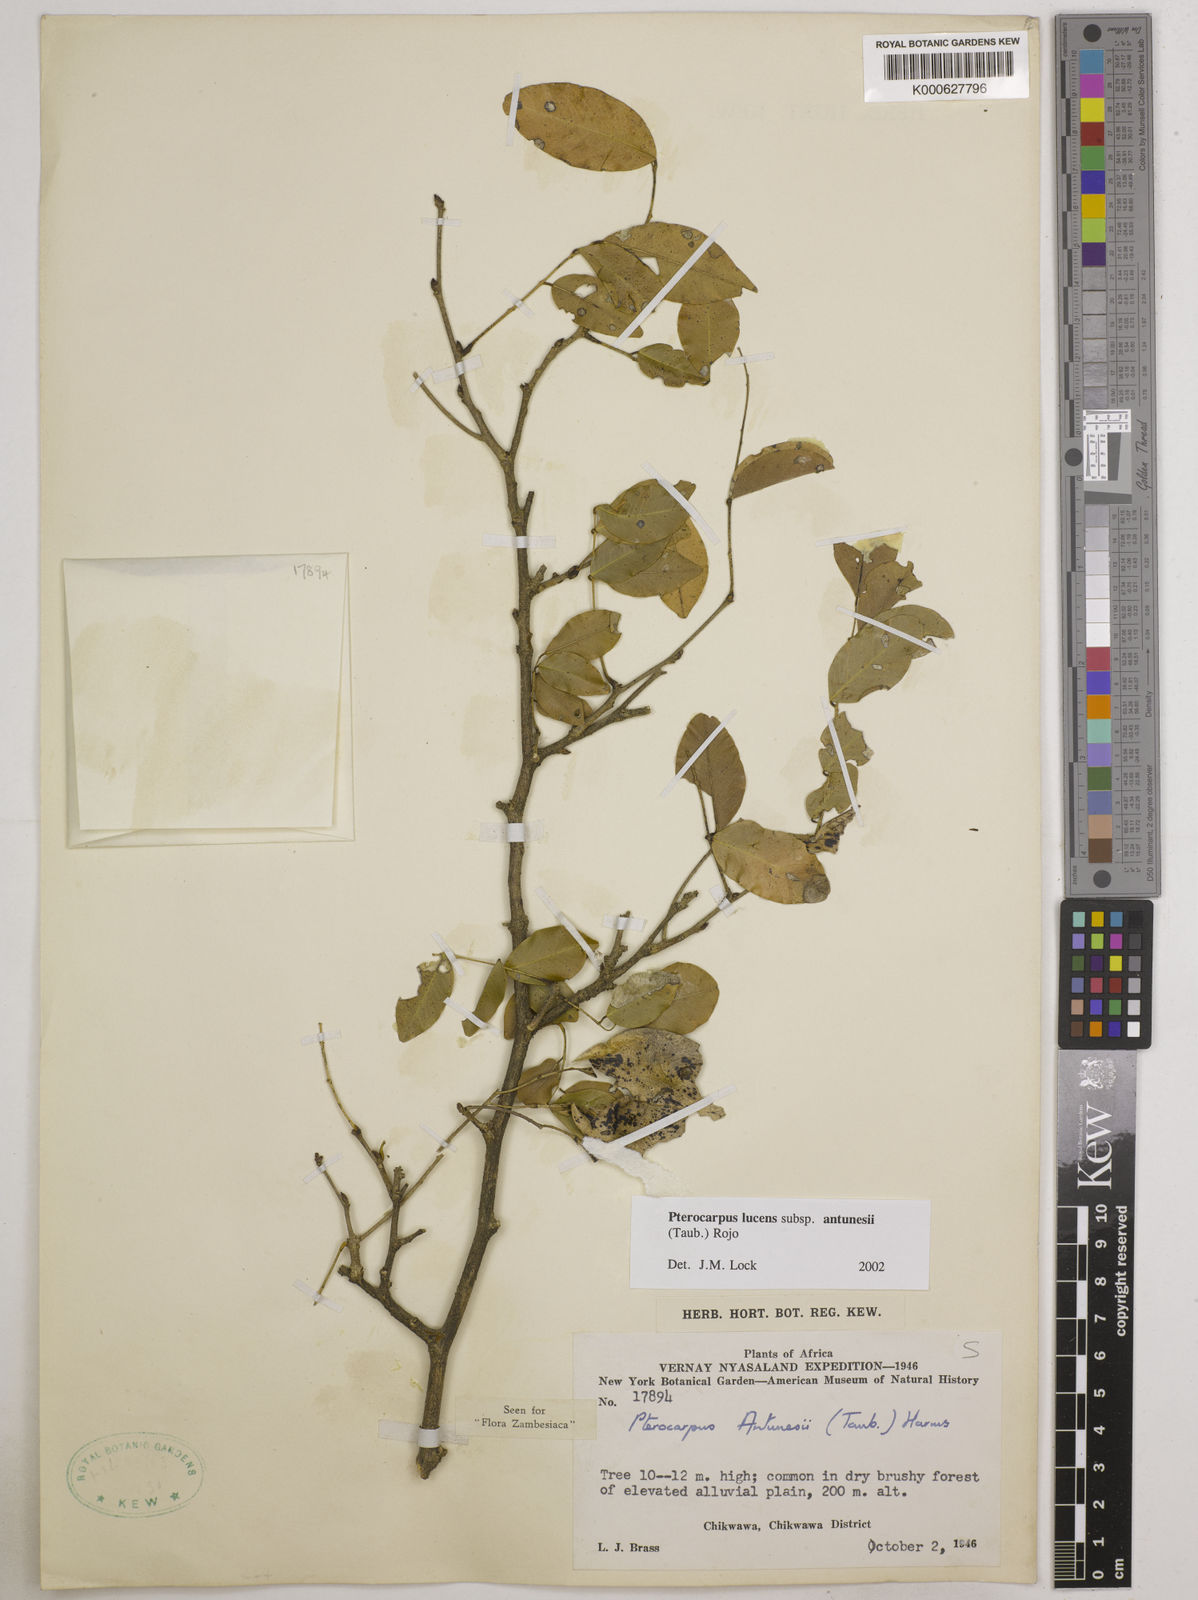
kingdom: Plantae
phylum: Tracheophyta
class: Magnoliopsida
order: Fabales
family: Fabaceae
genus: Pterocarpus
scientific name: Pterocarpus lucens
